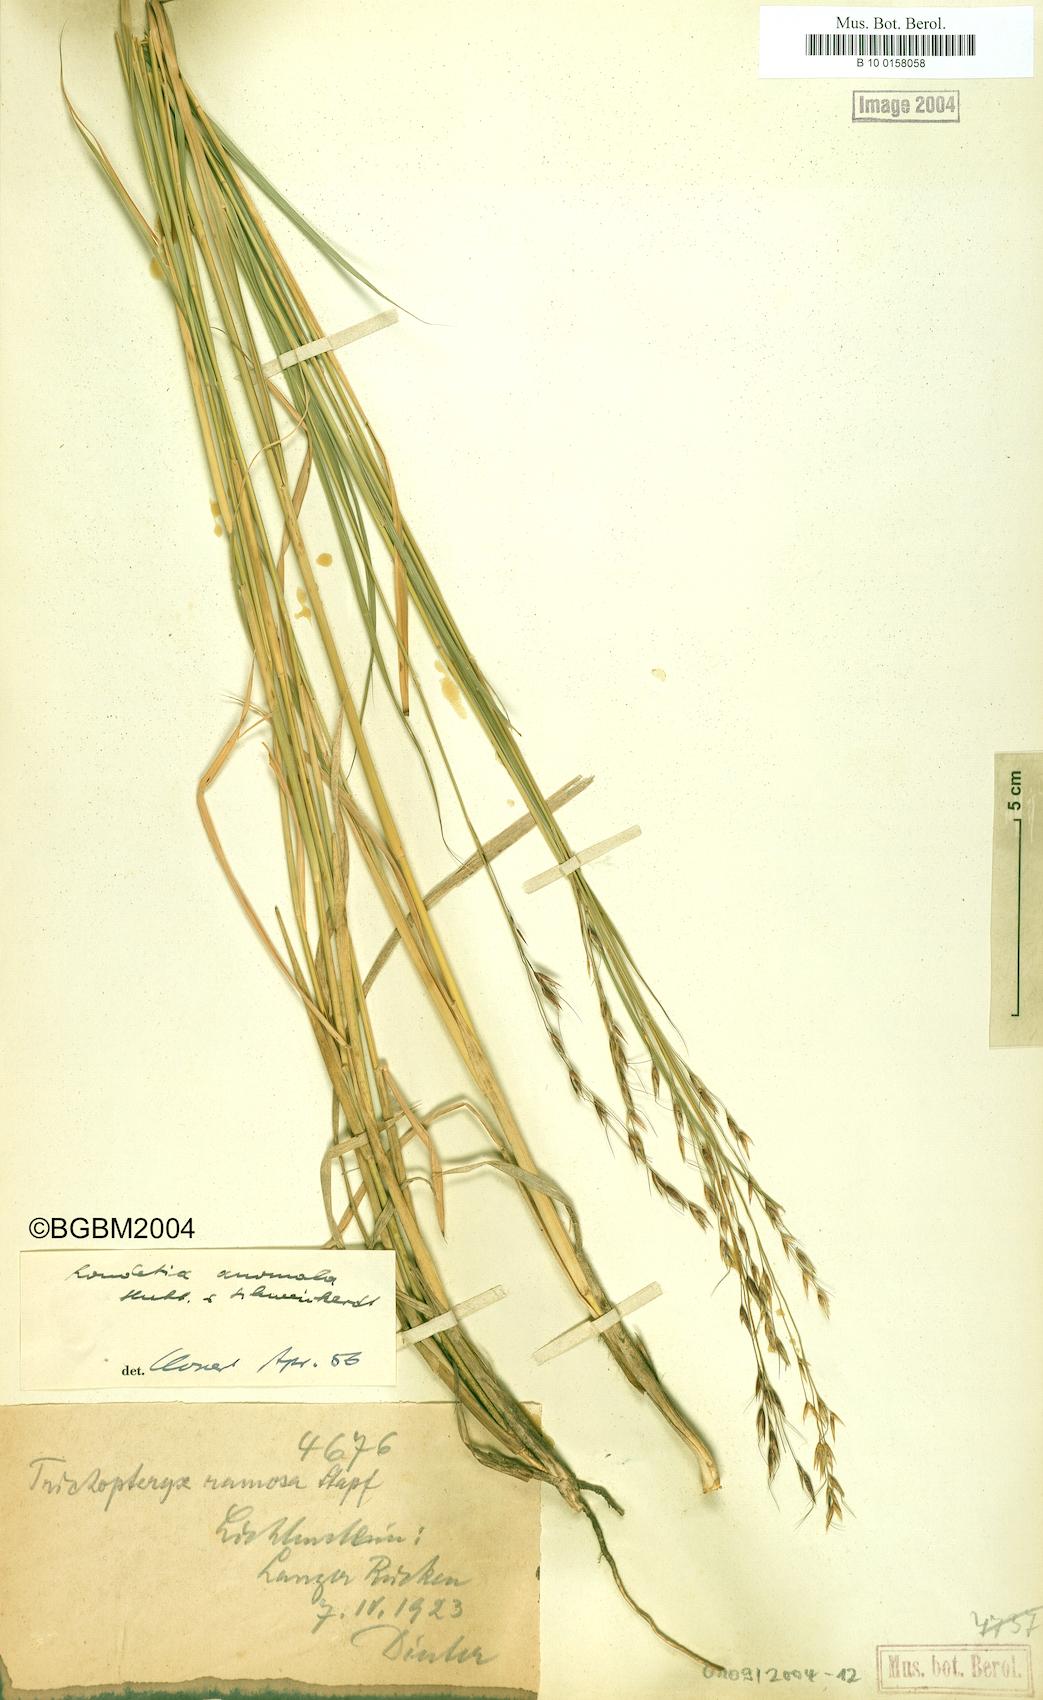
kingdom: Plantae
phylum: Tracheophyta
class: Liliopsida
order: Poales
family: Poaceae
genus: Danthoniopsis
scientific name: Danthoniopsis ramosa
